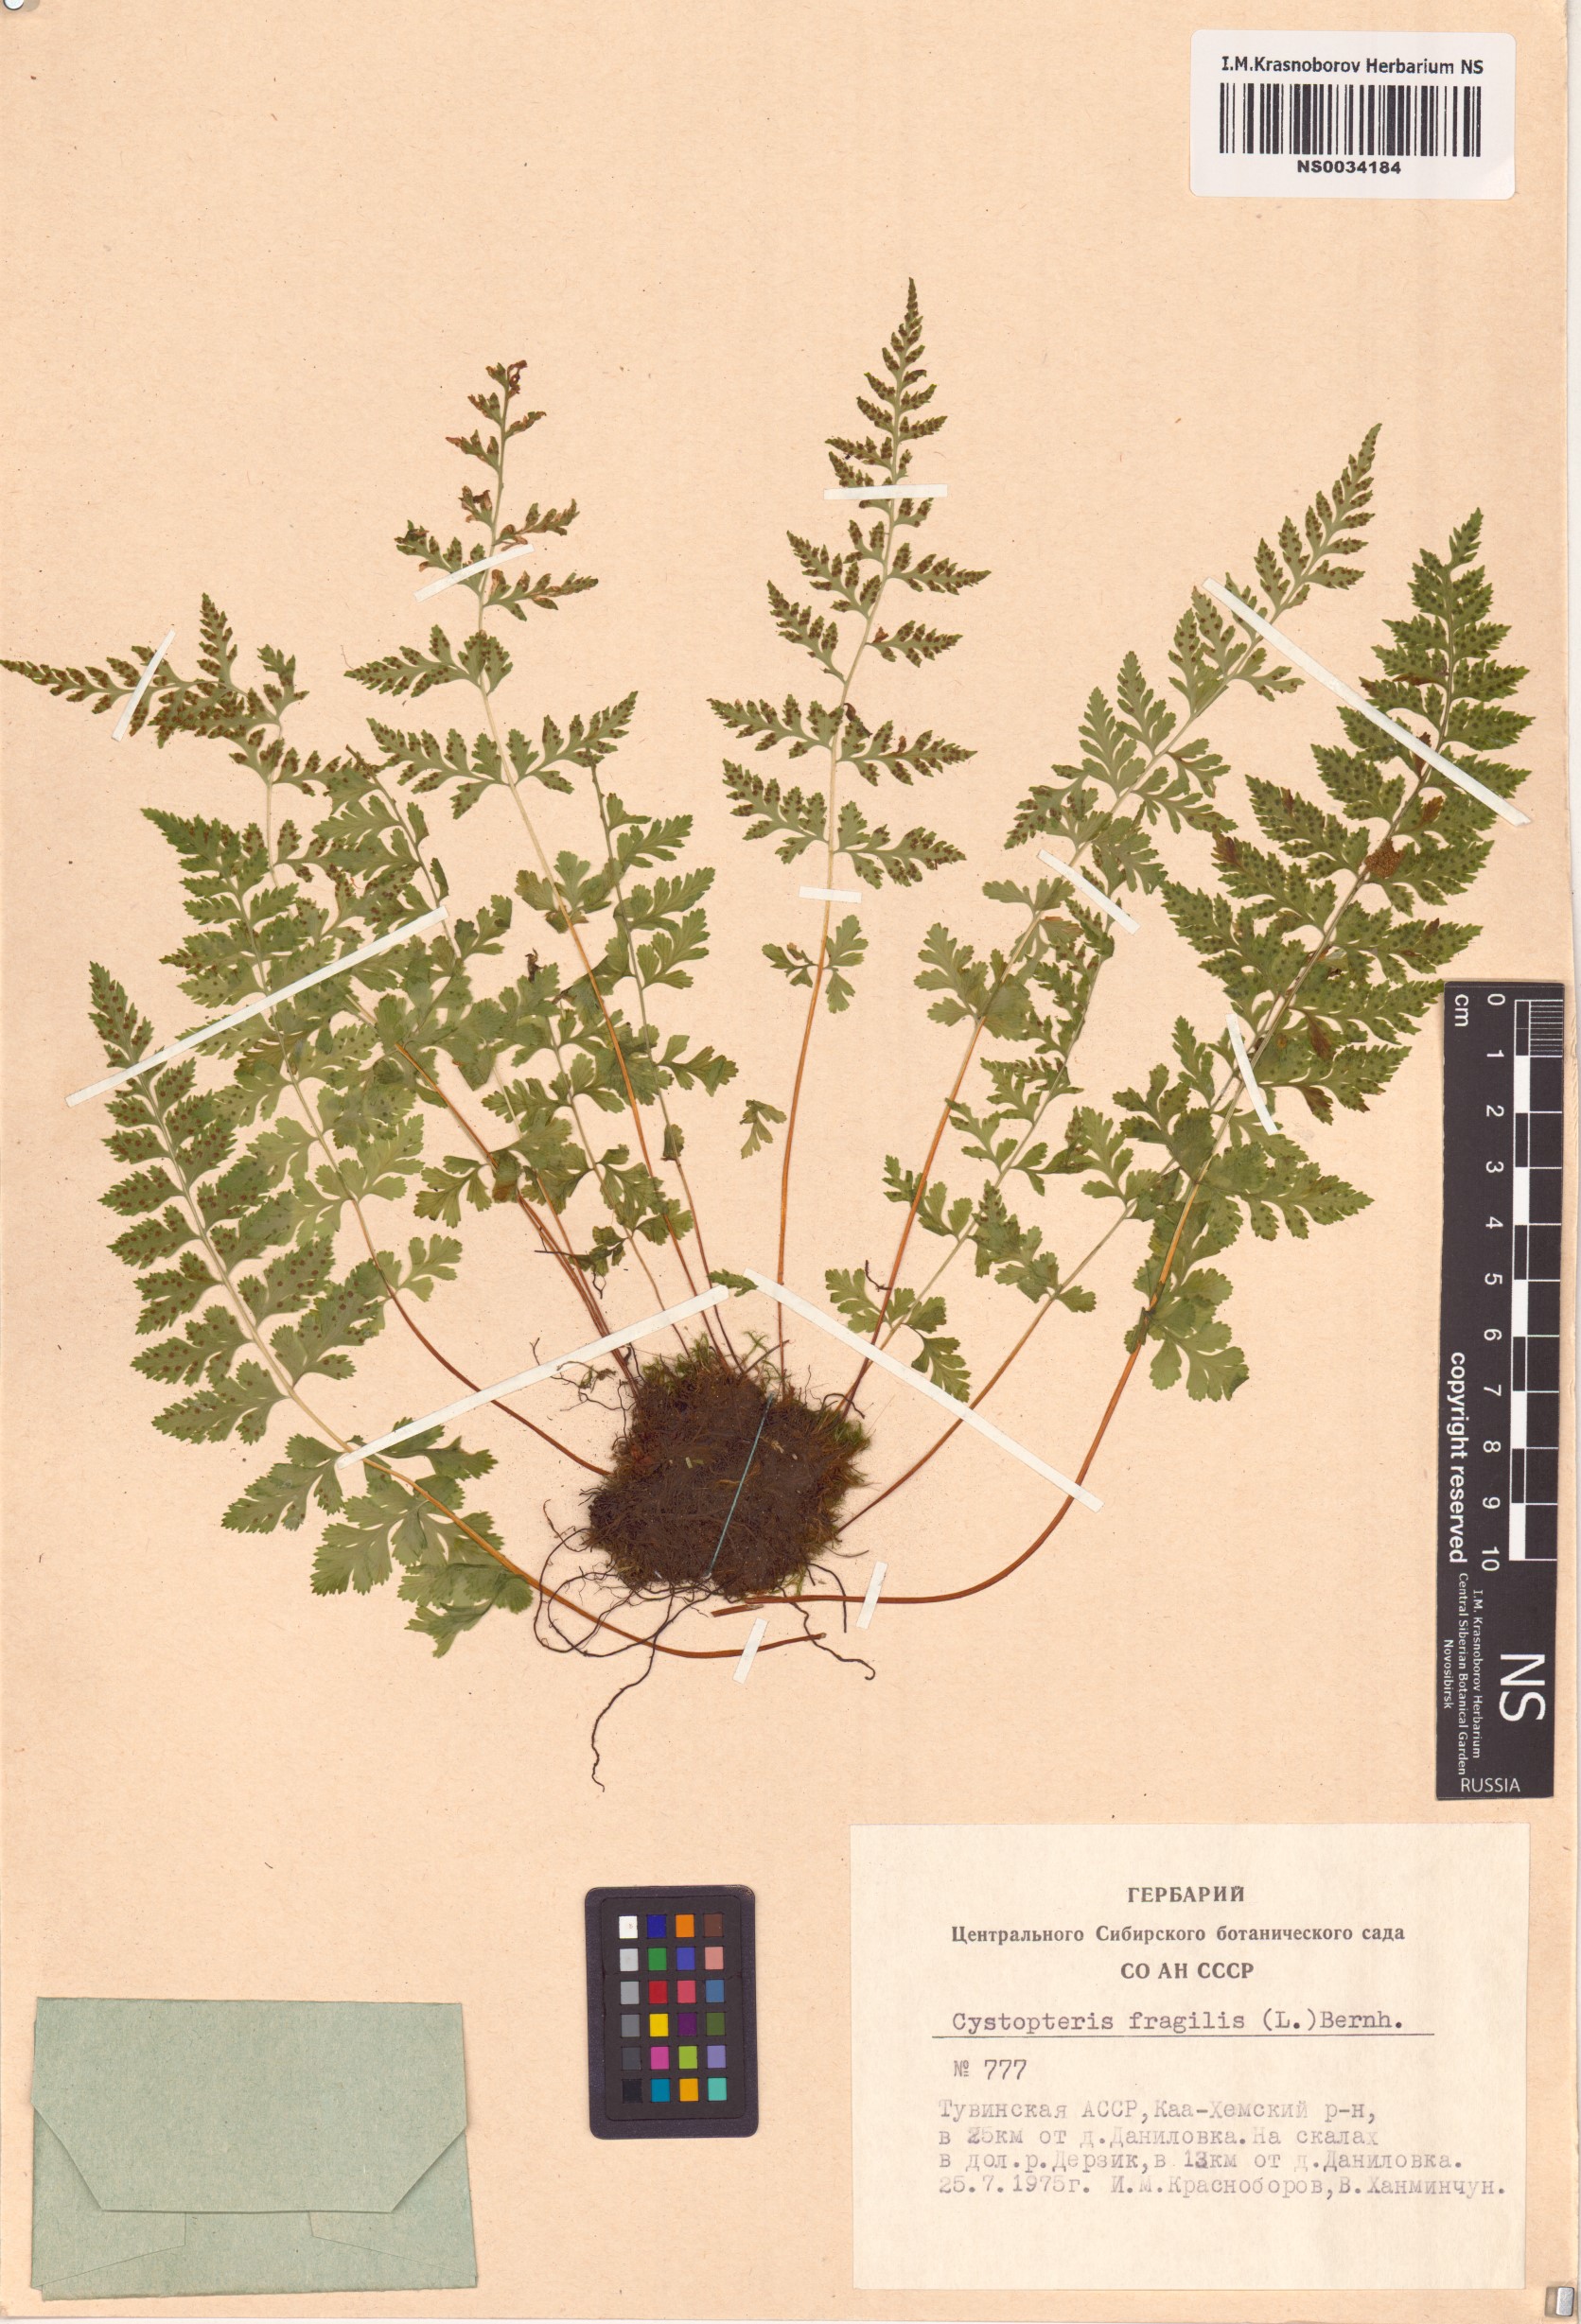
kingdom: Plantae
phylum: Tracheophyta
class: Polypodiopsida
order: Polypodiales
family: Cystopteridaceae
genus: Cystopteris
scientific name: Cystopteris fragilis
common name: Brittle bladder fern
